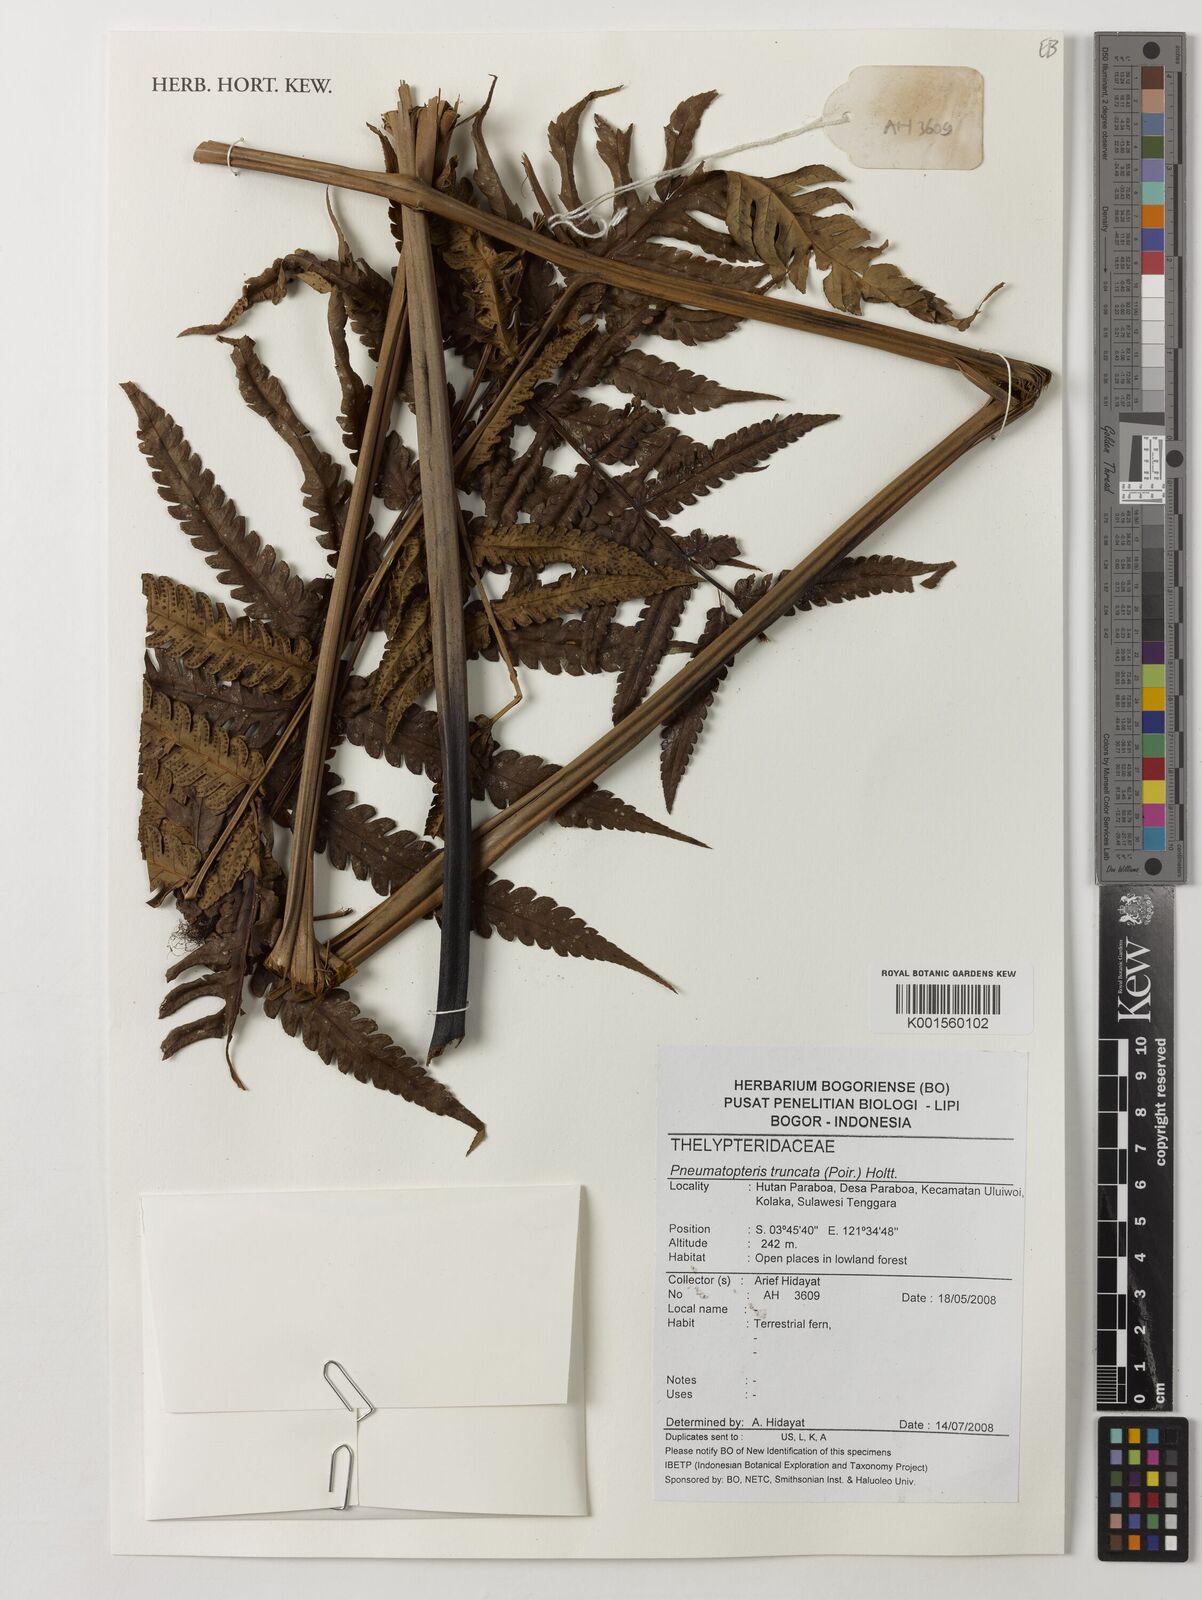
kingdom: Plantae
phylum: Tracheophyta
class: Polypodiopsida
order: Polypodiales
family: Thelypteridaceae
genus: Reholttumia
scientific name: Reholttumia truncata
